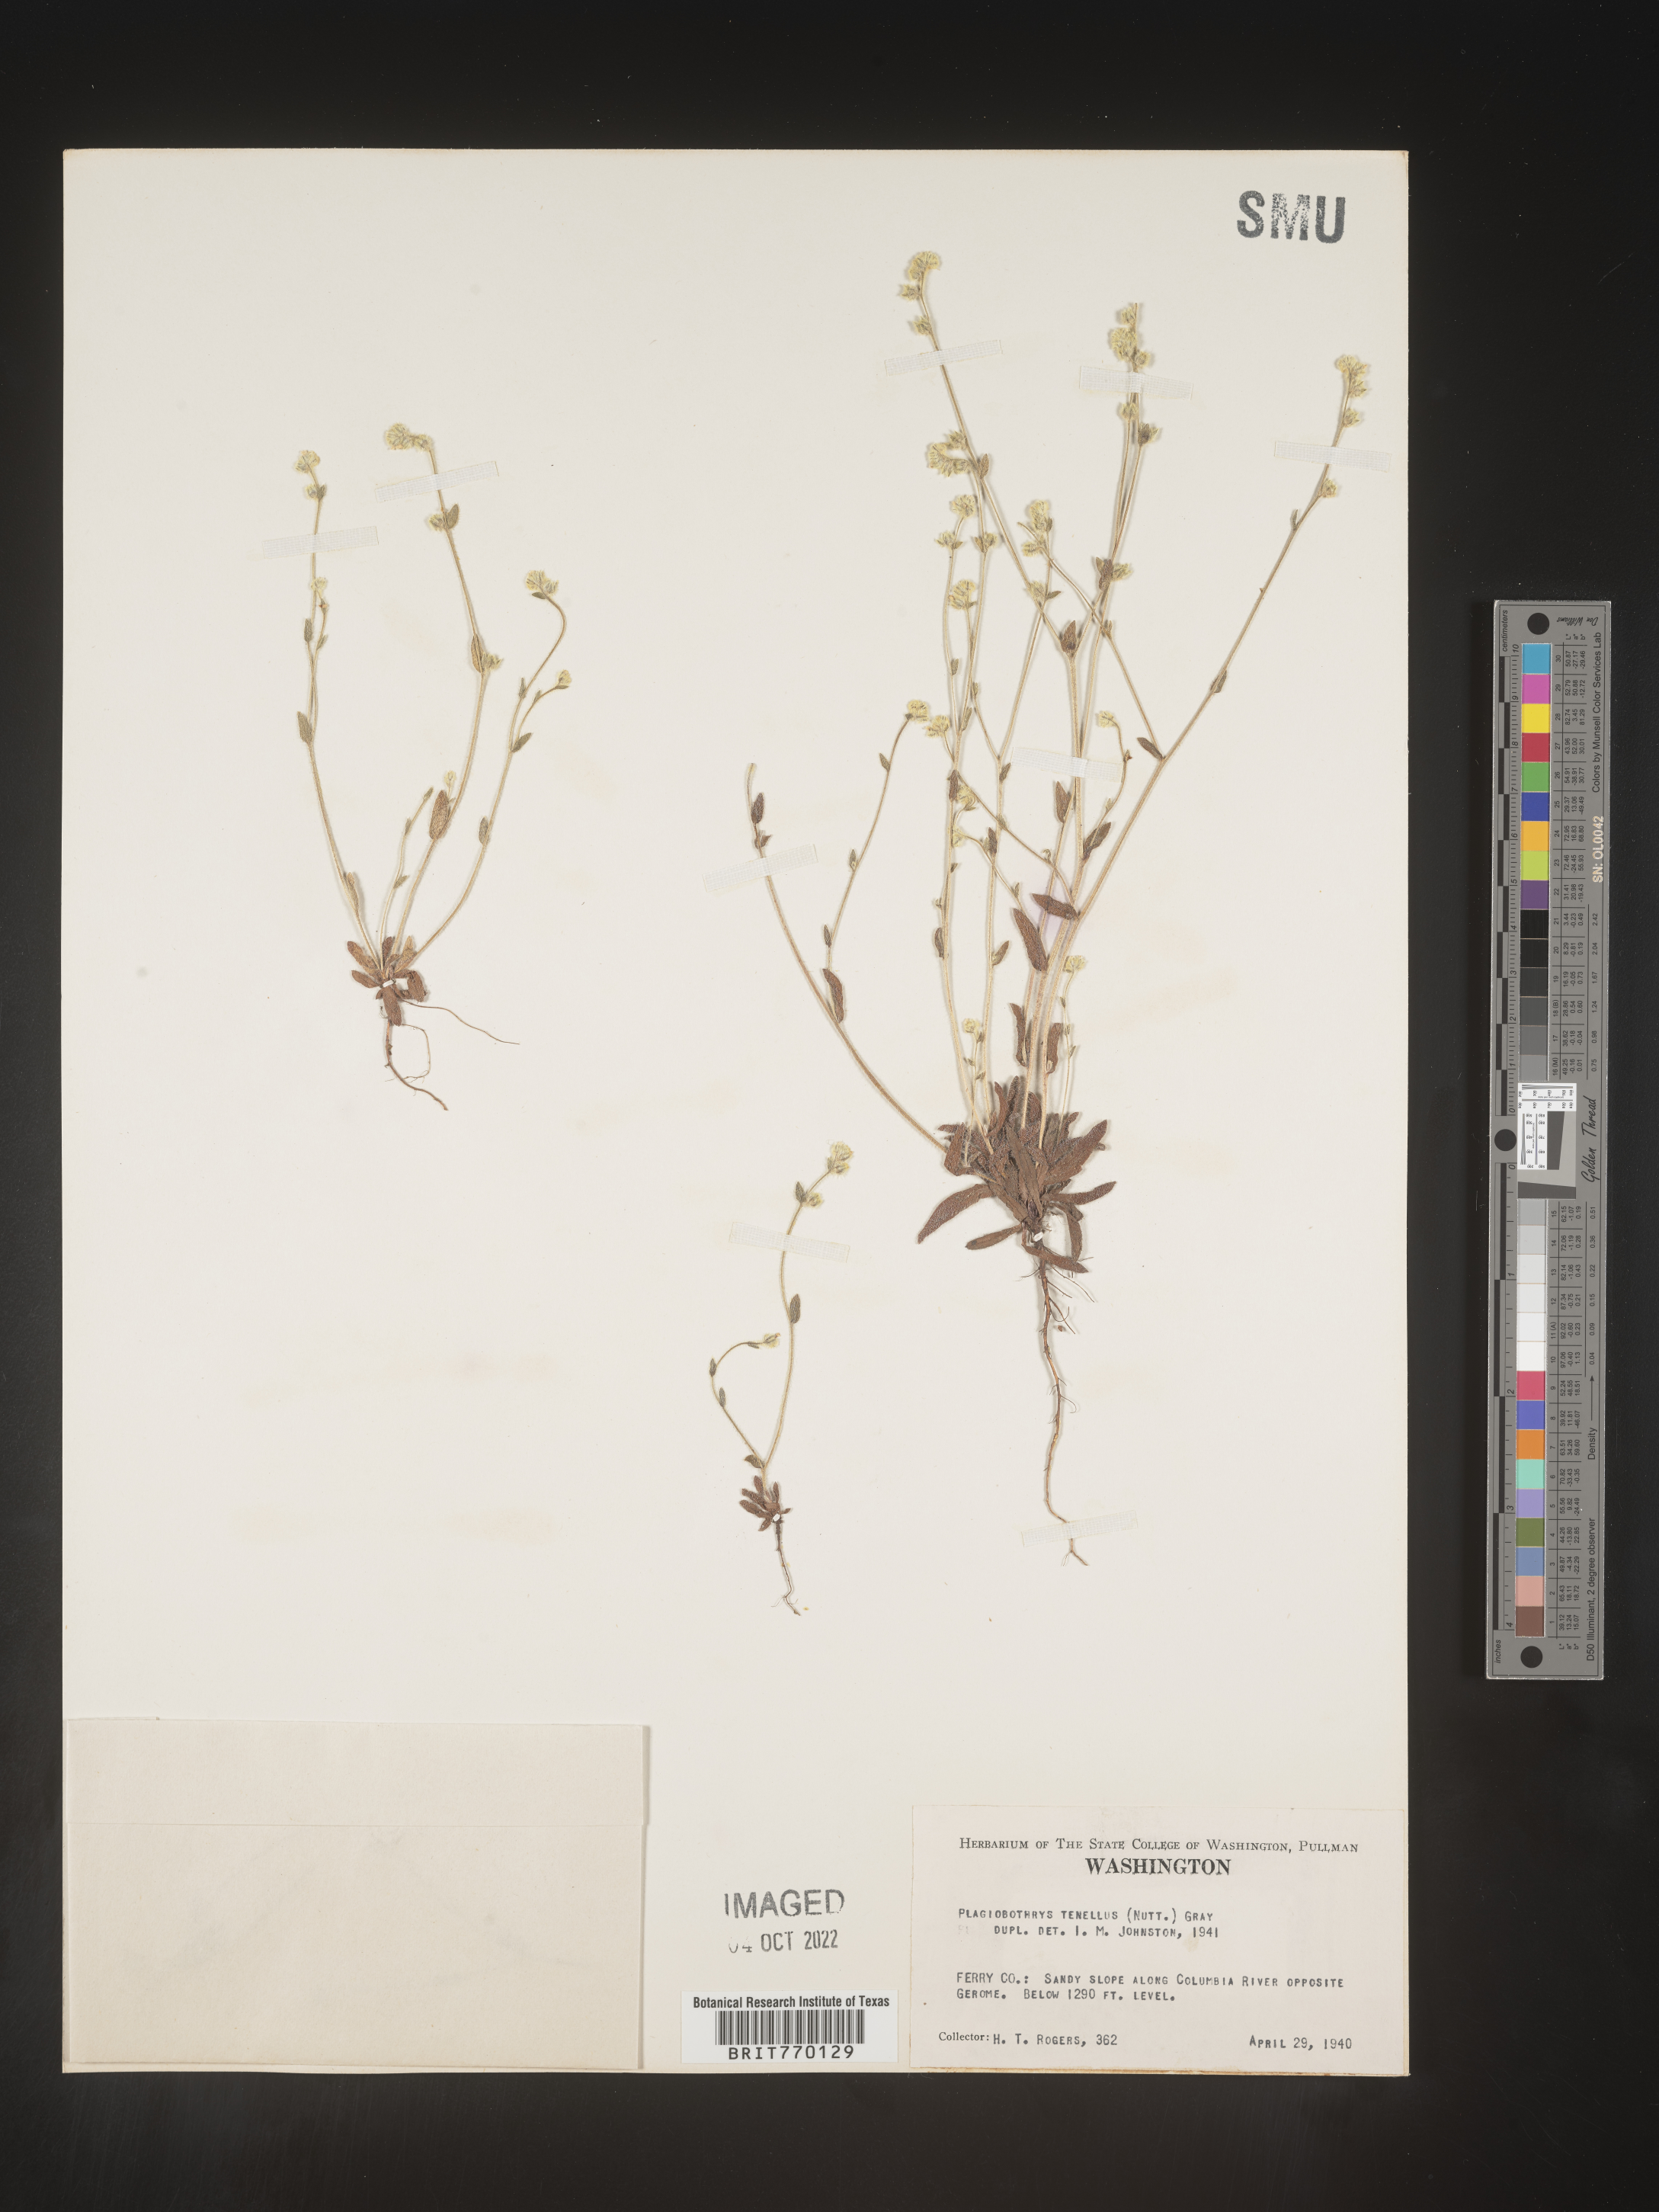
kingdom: Plantae
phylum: Tracheophyta
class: Magnoliopsida
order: Boraginales
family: Boraginaceae
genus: Plagiobothrys
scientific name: Plagiobothrys
